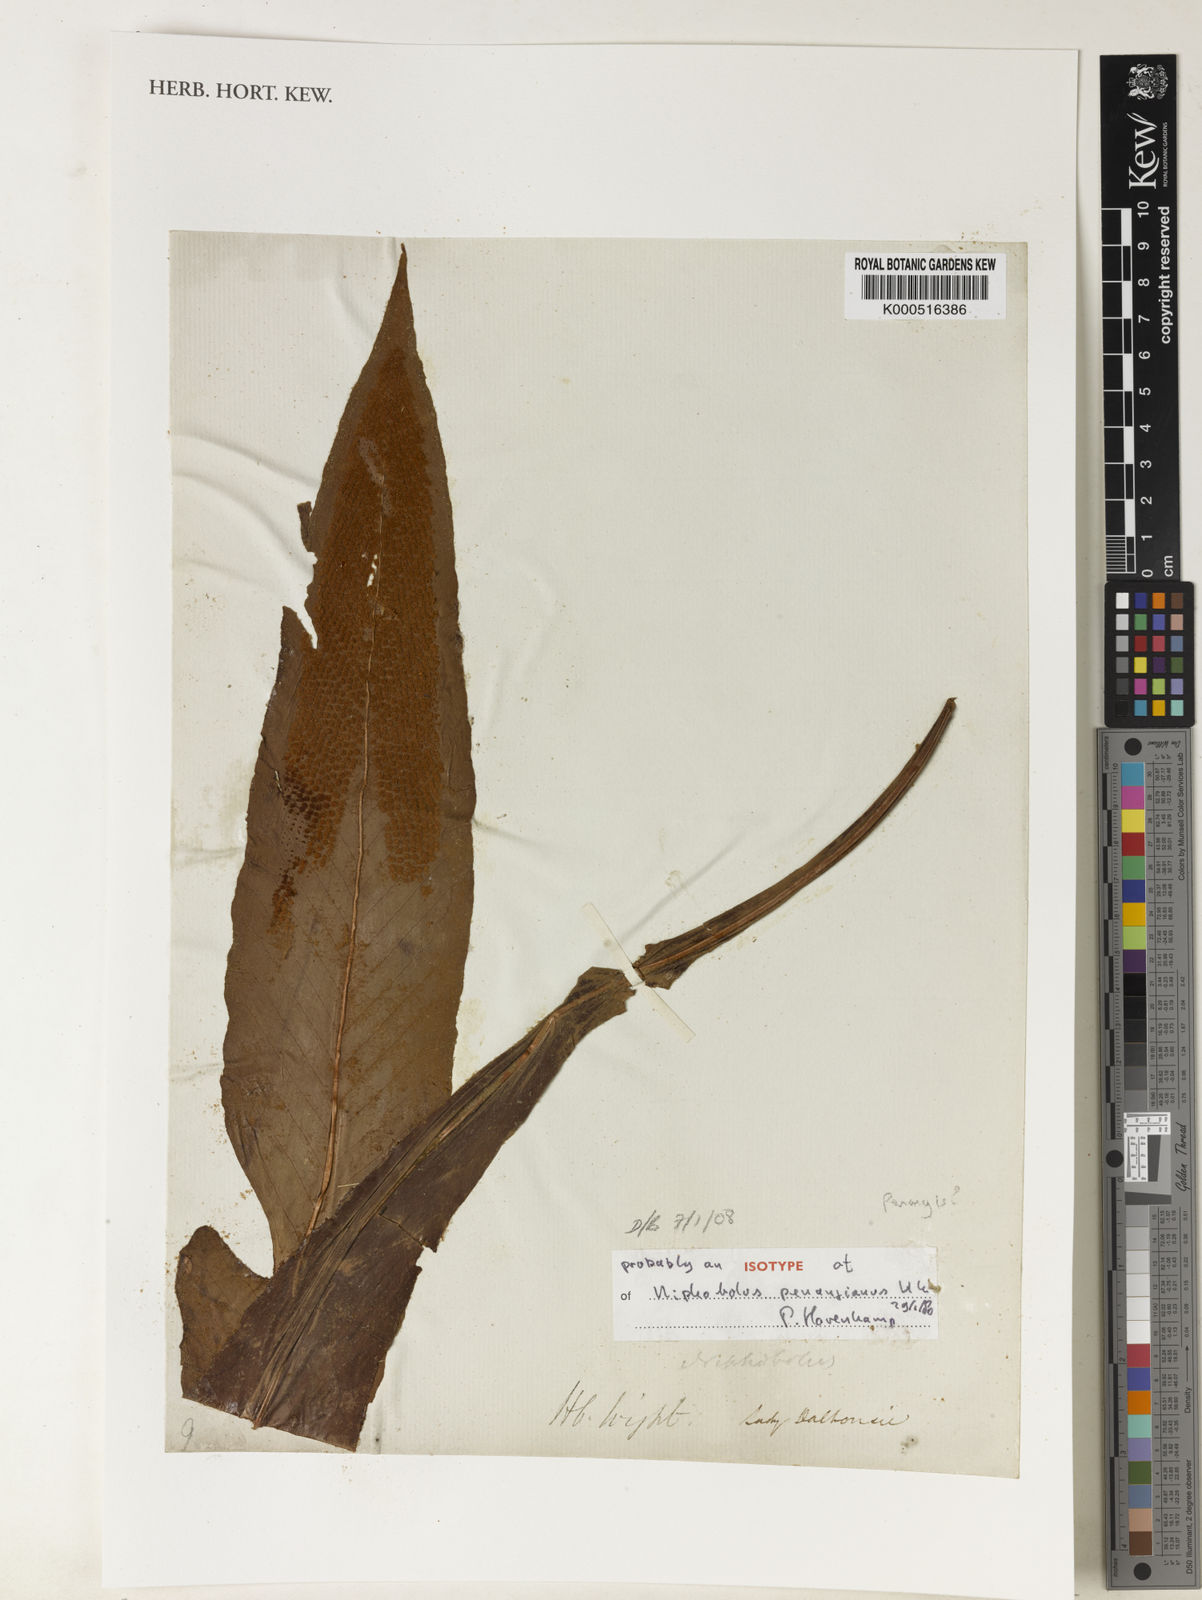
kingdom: Plantae
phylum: Tracheophyta
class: Polypodiopsida
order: Polypodiales
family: Polypodiaceae
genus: Pyrrosia
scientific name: Pyrrosia penangiana
